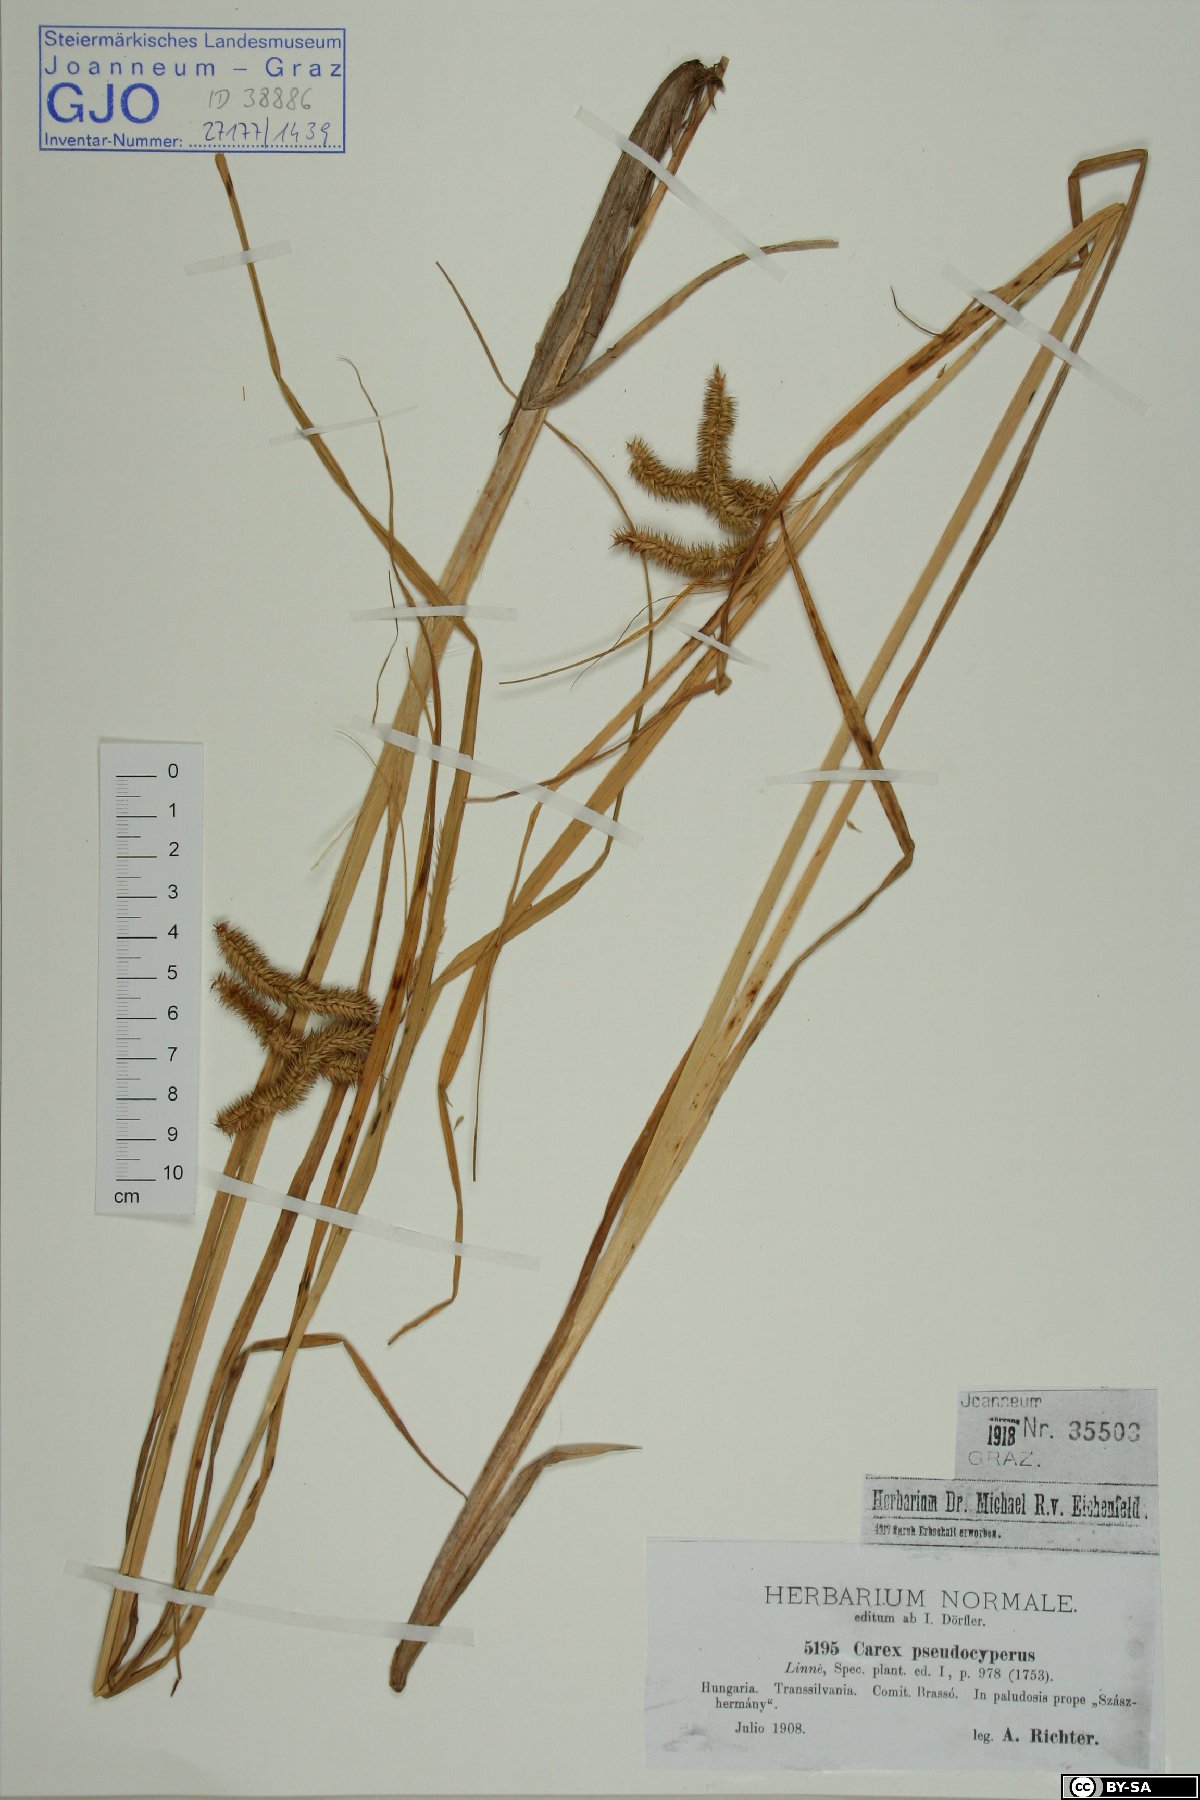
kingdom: Plantae
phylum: Tracheophyta
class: Liliopsida
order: Poales
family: Cyperaceae
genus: Carex
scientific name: Carex pseudocyperus
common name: Cyperus sedge
